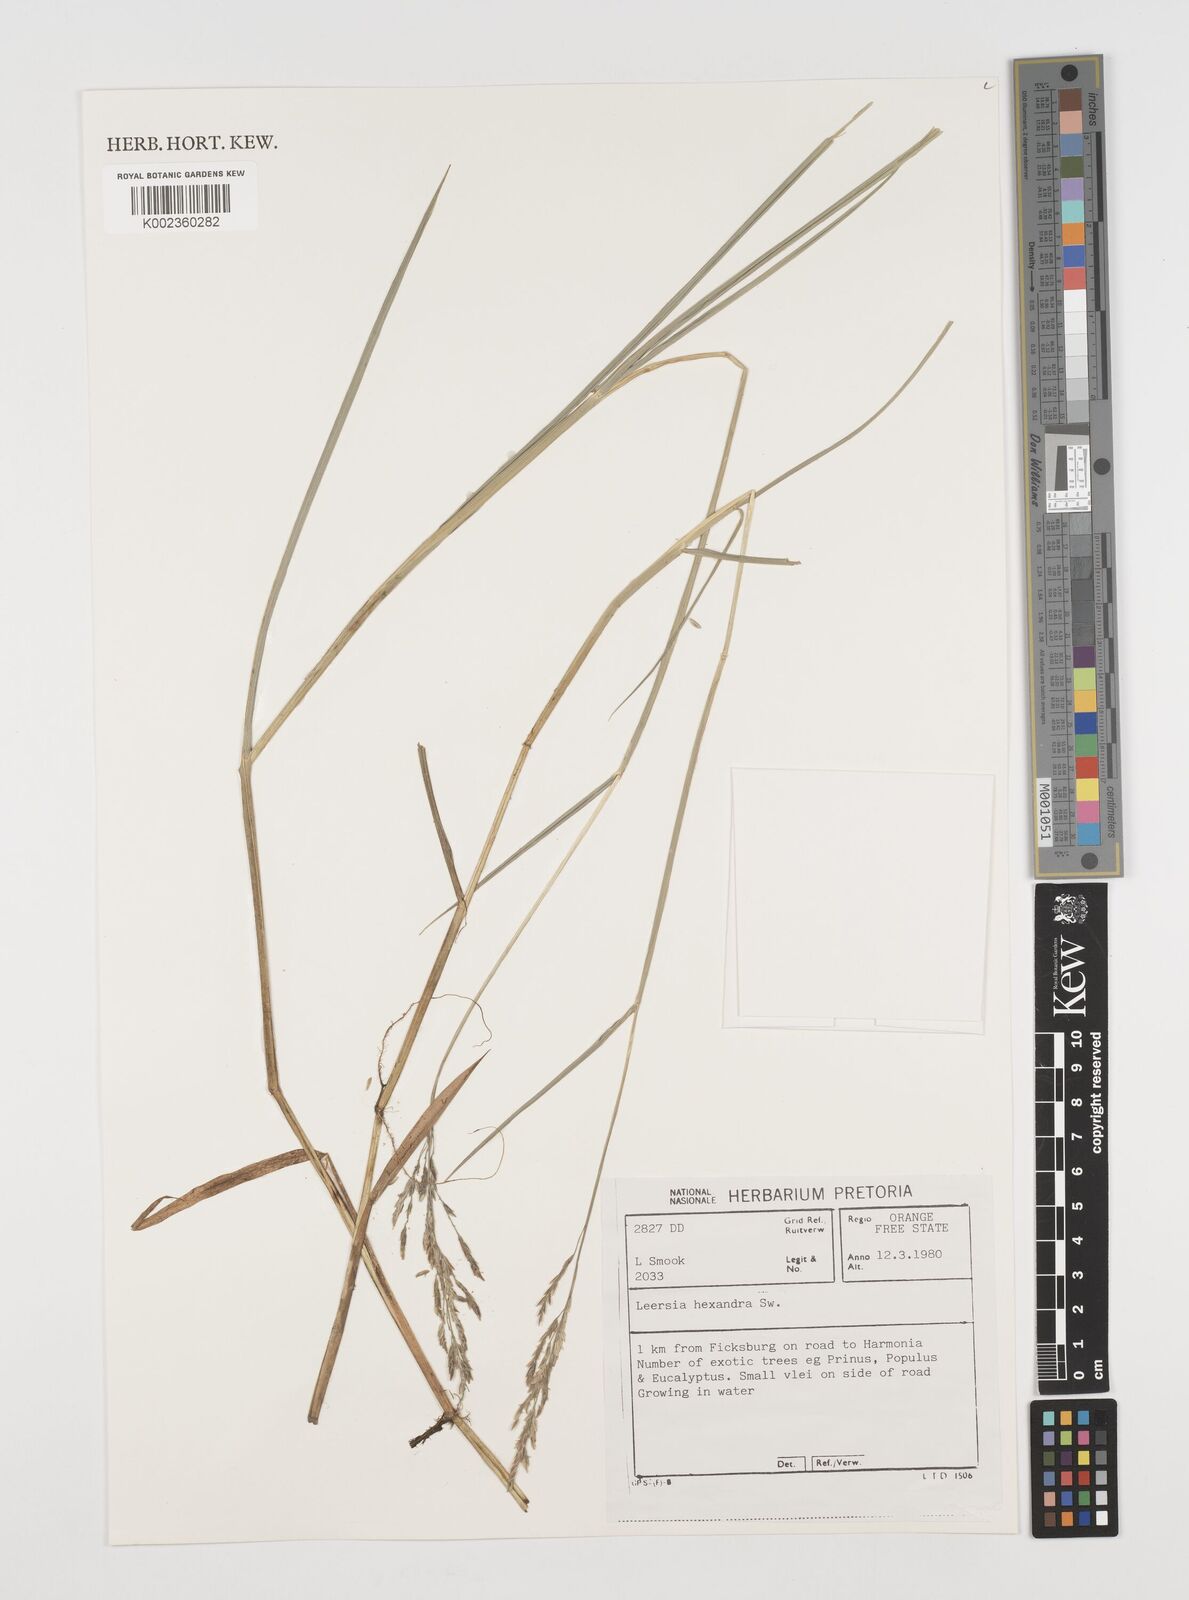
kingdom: Plantae
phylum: Tracheophyta
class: Liliopsida
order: Poales
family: Poaceae
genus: Leersia
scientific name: Leersia hexandra
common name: Southern cut grass
